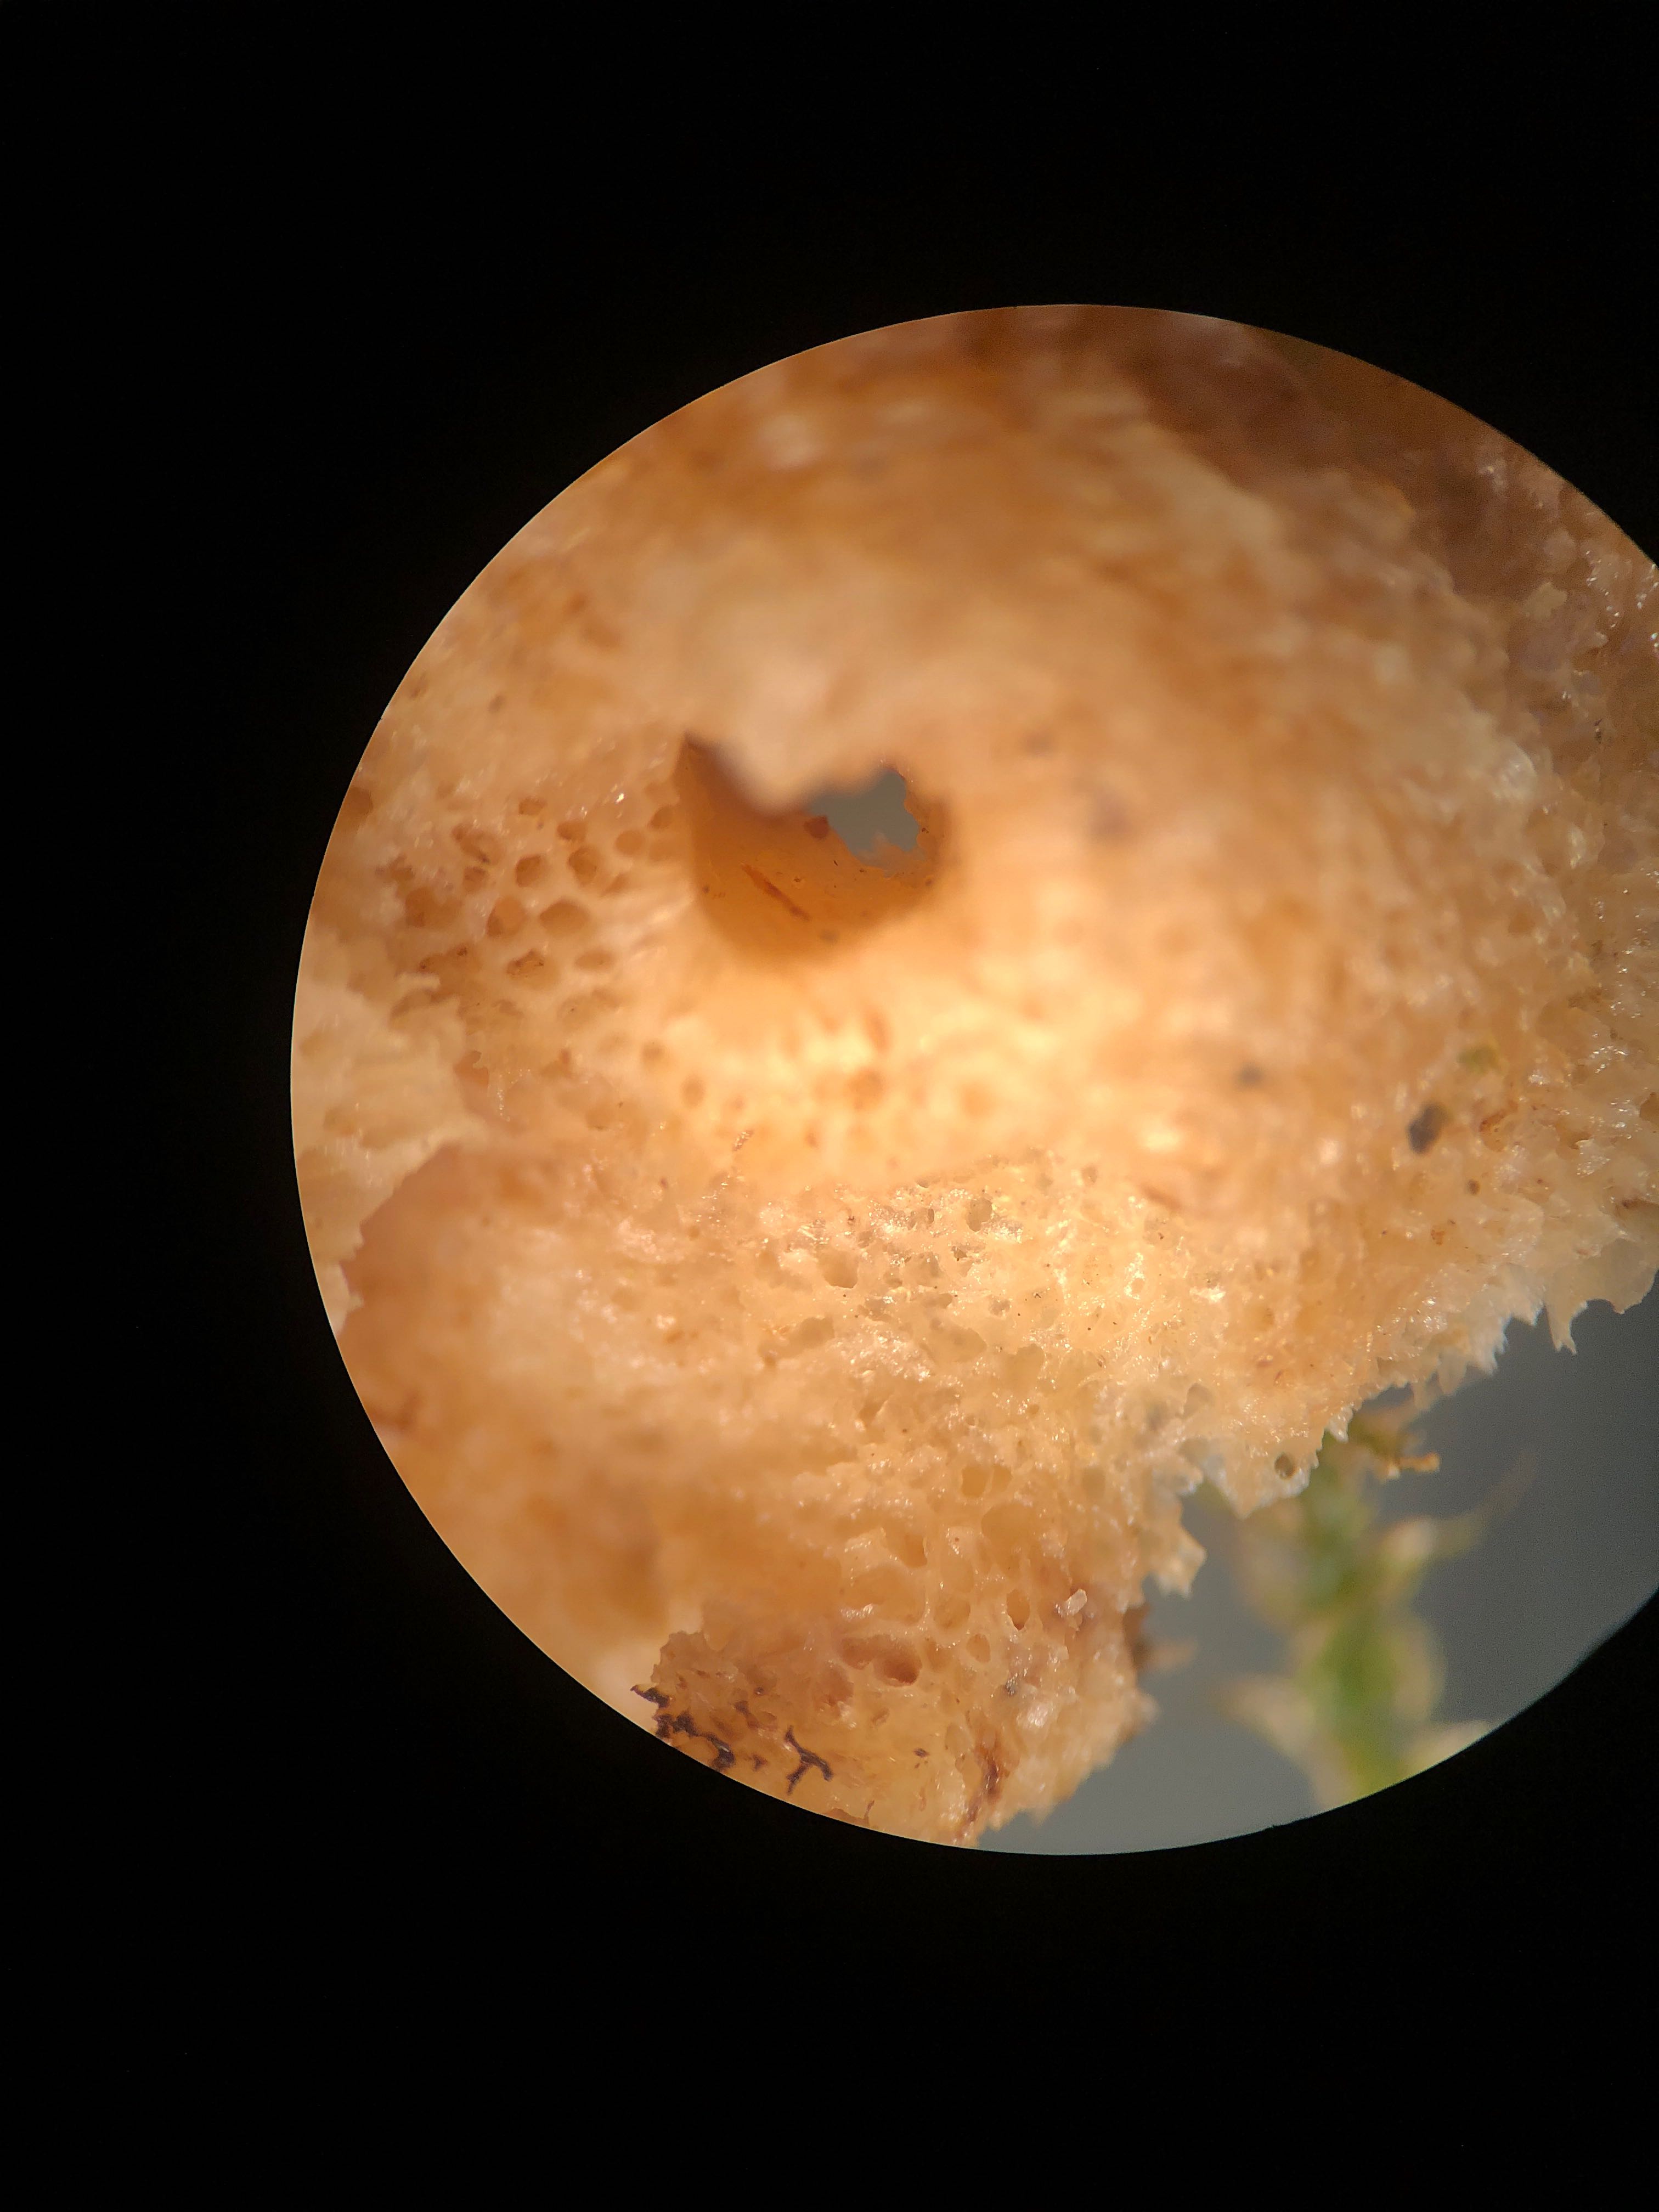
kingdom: Fungi
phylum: Basidiomycota
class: Agaricomycetes
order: Polyporales
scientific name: Polyporales
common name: poresvampordenen
